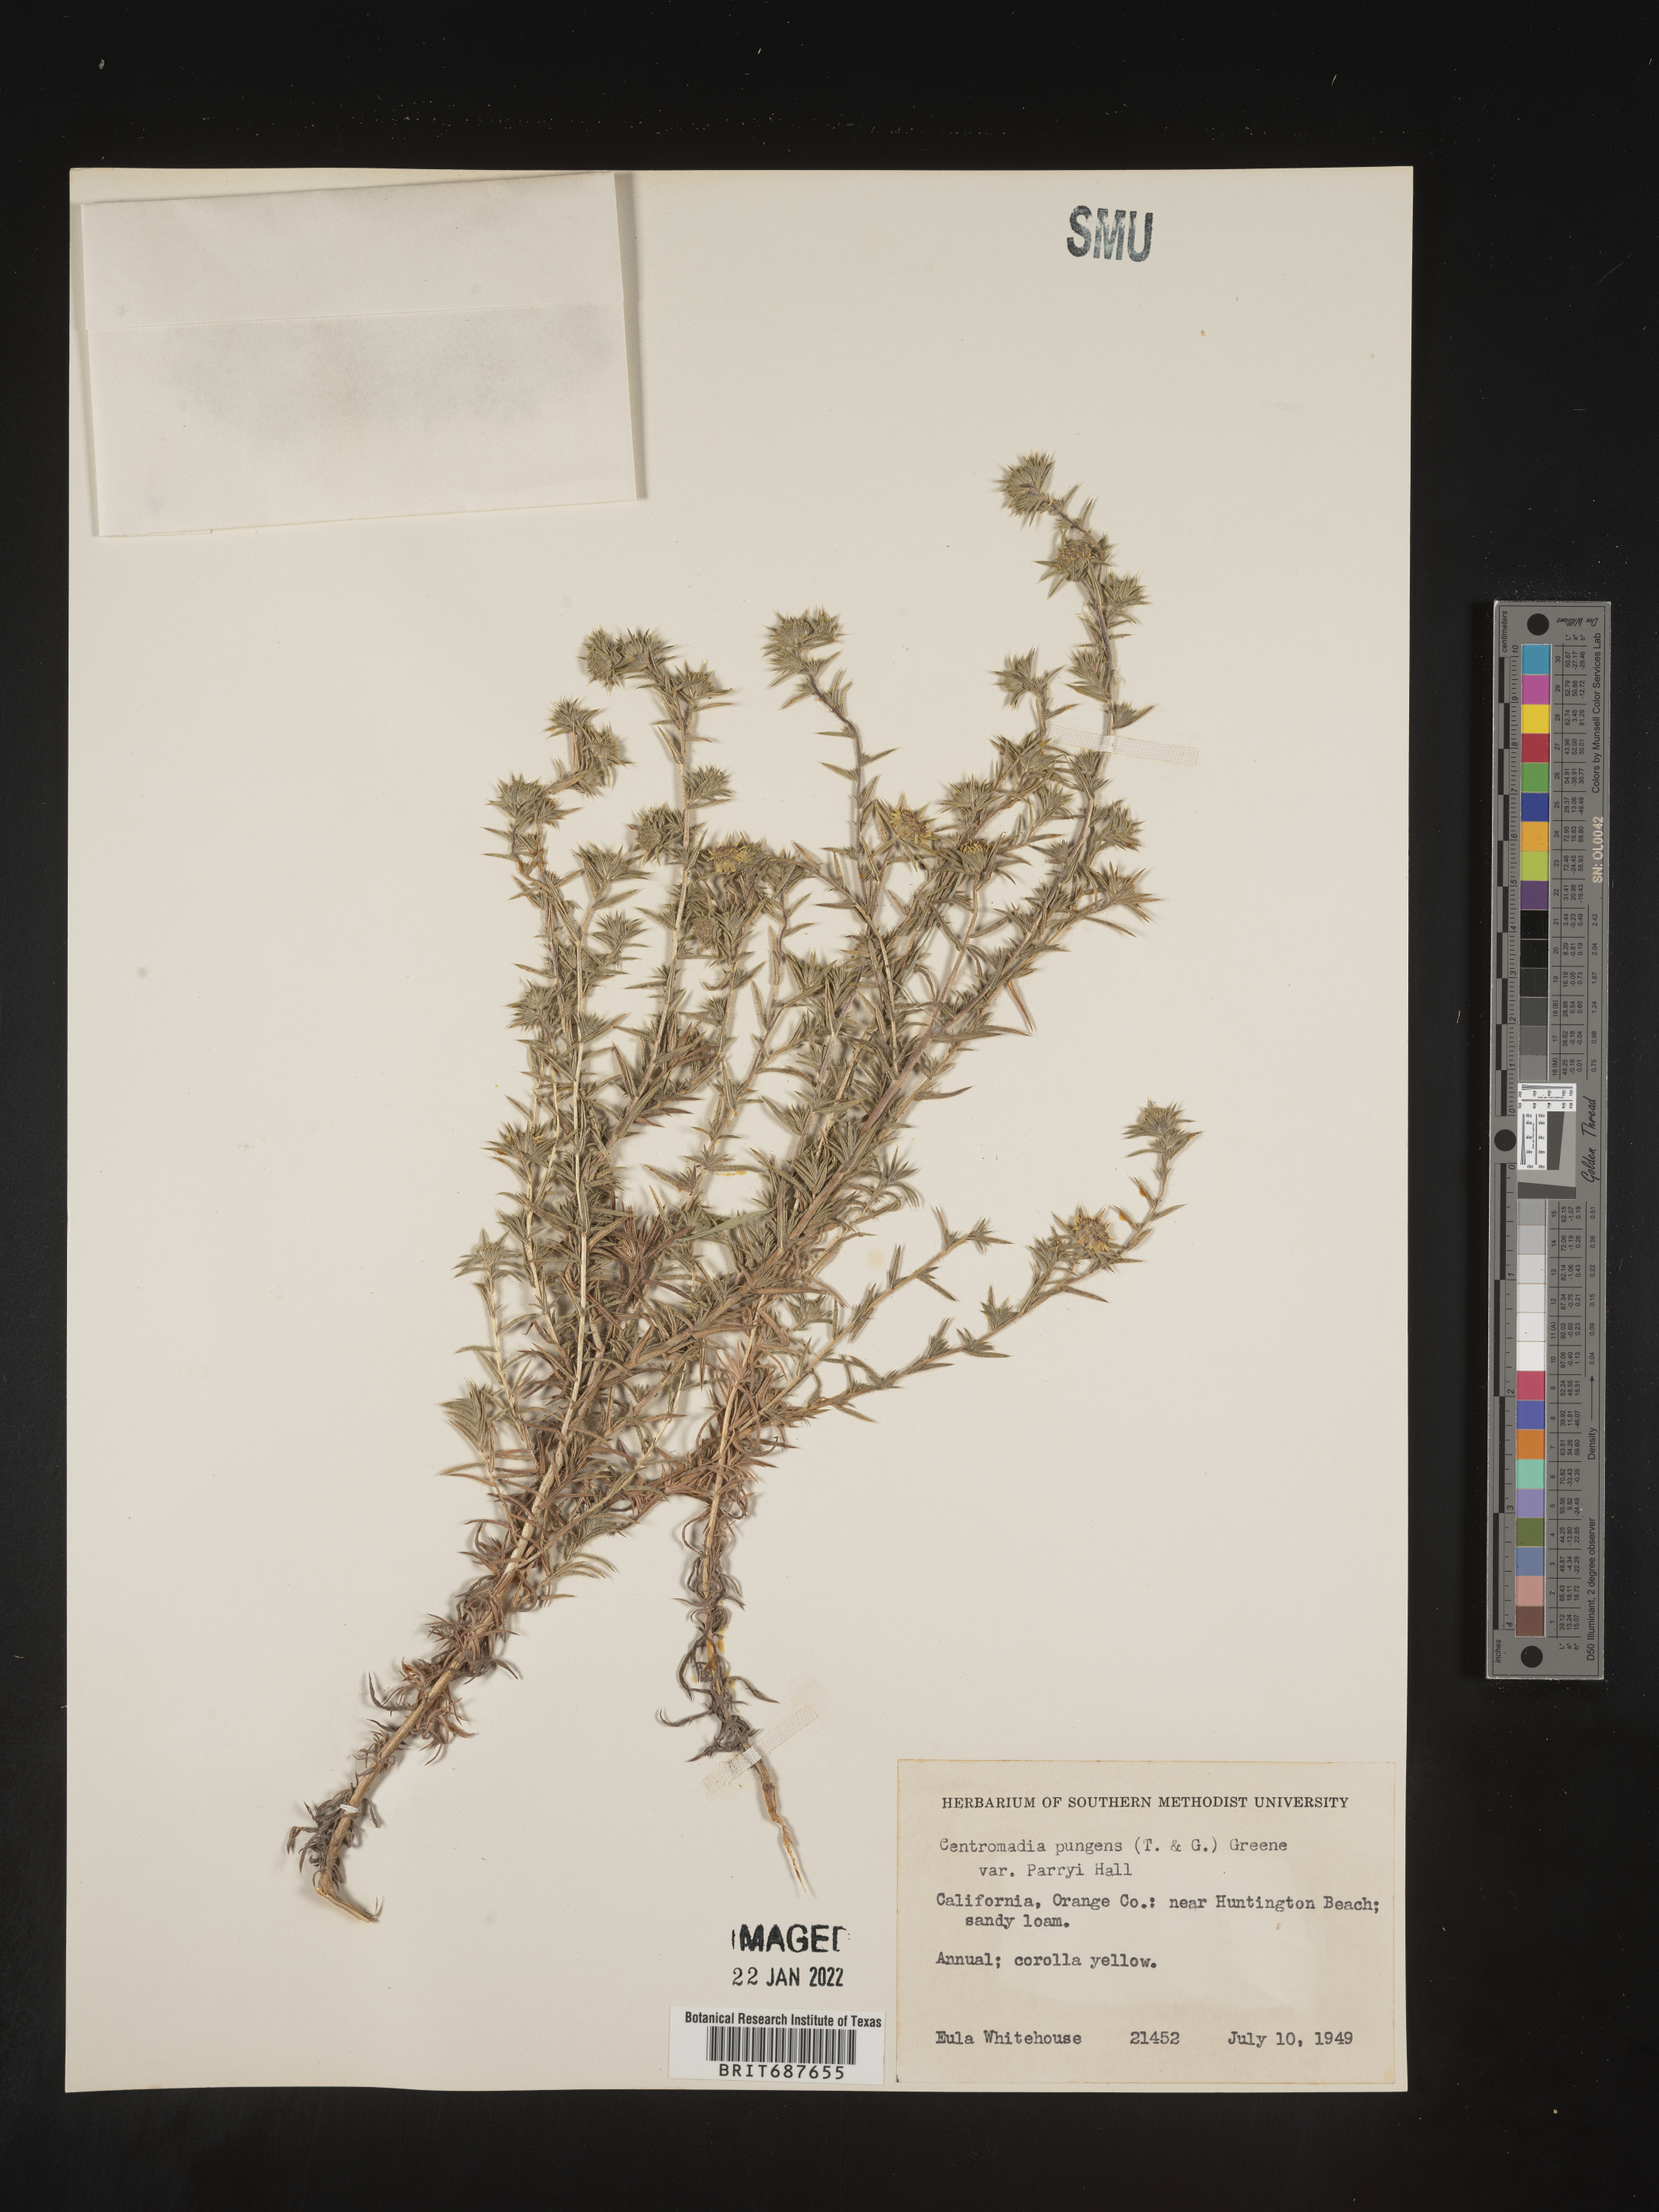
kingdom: Plantae
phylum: Tracheophyta
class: Magnoliopsida
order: Asterales
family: Asteraceae
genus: Centromadia
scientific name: Centromadia
